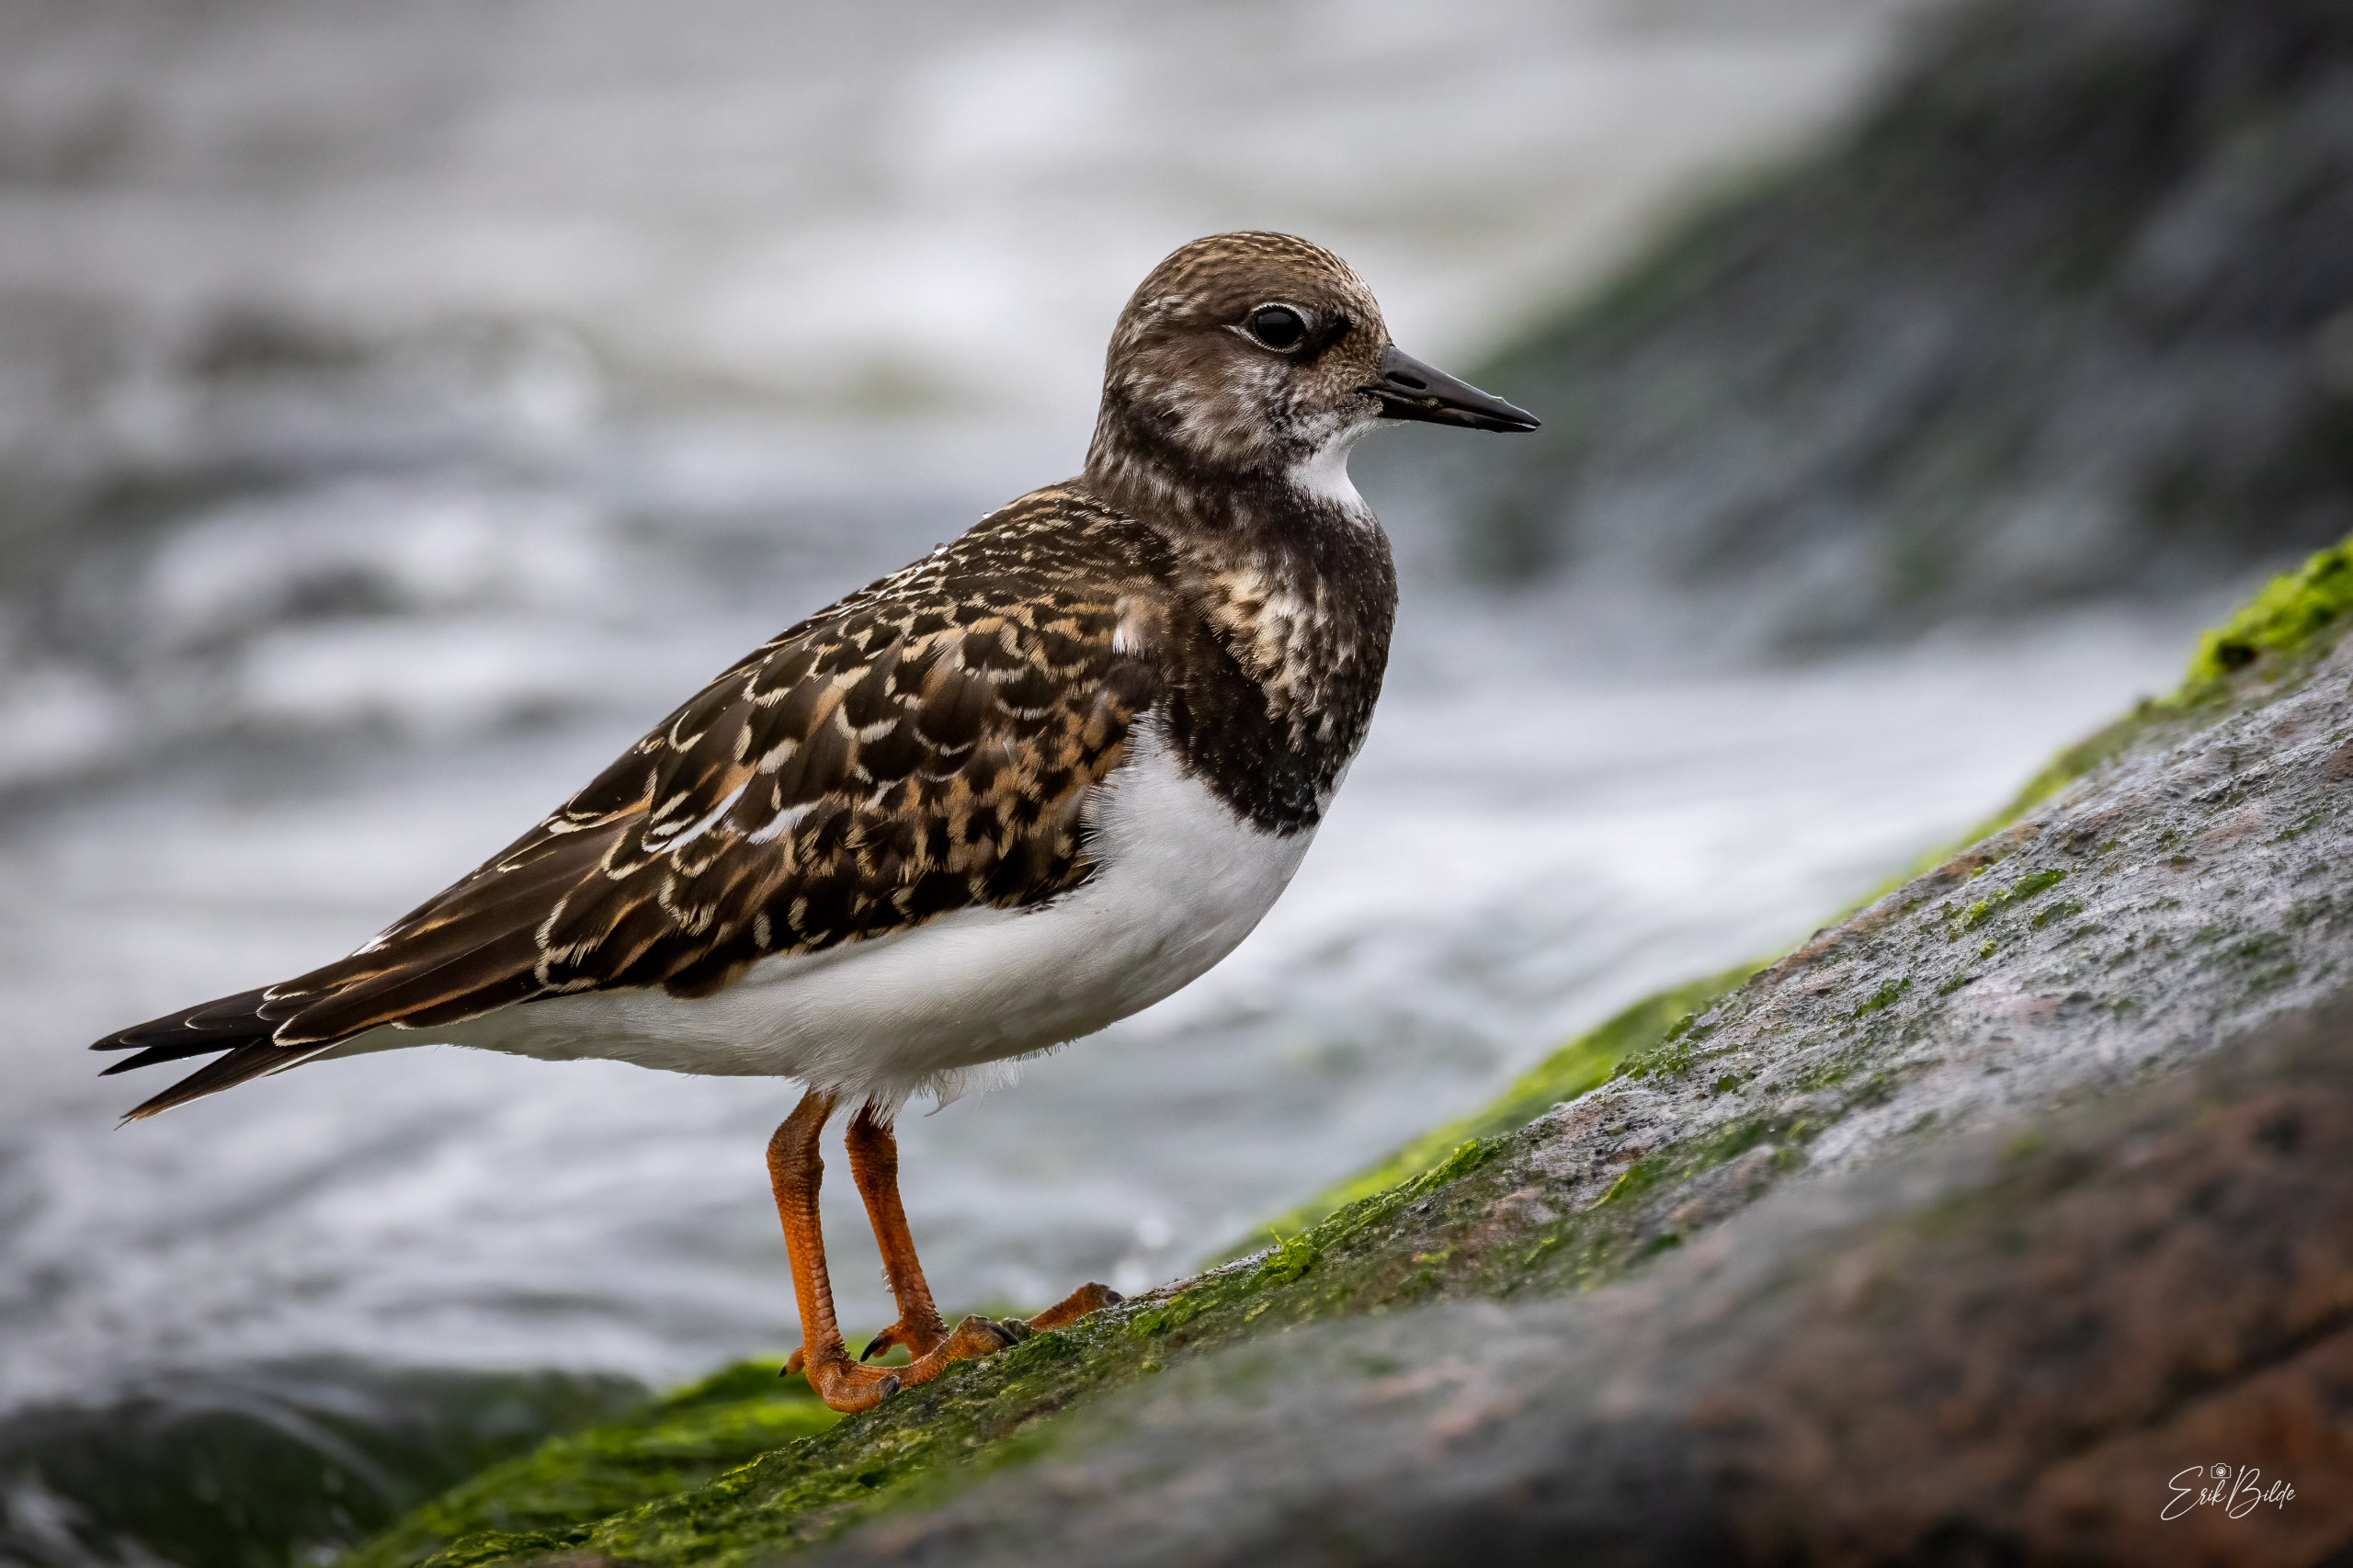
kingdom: Animalia
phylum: Chordata
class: Aves
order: Charadriiformes
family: Scolopacidae
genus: Arenaria
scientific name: Arenaria interpres
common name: Stenvender
